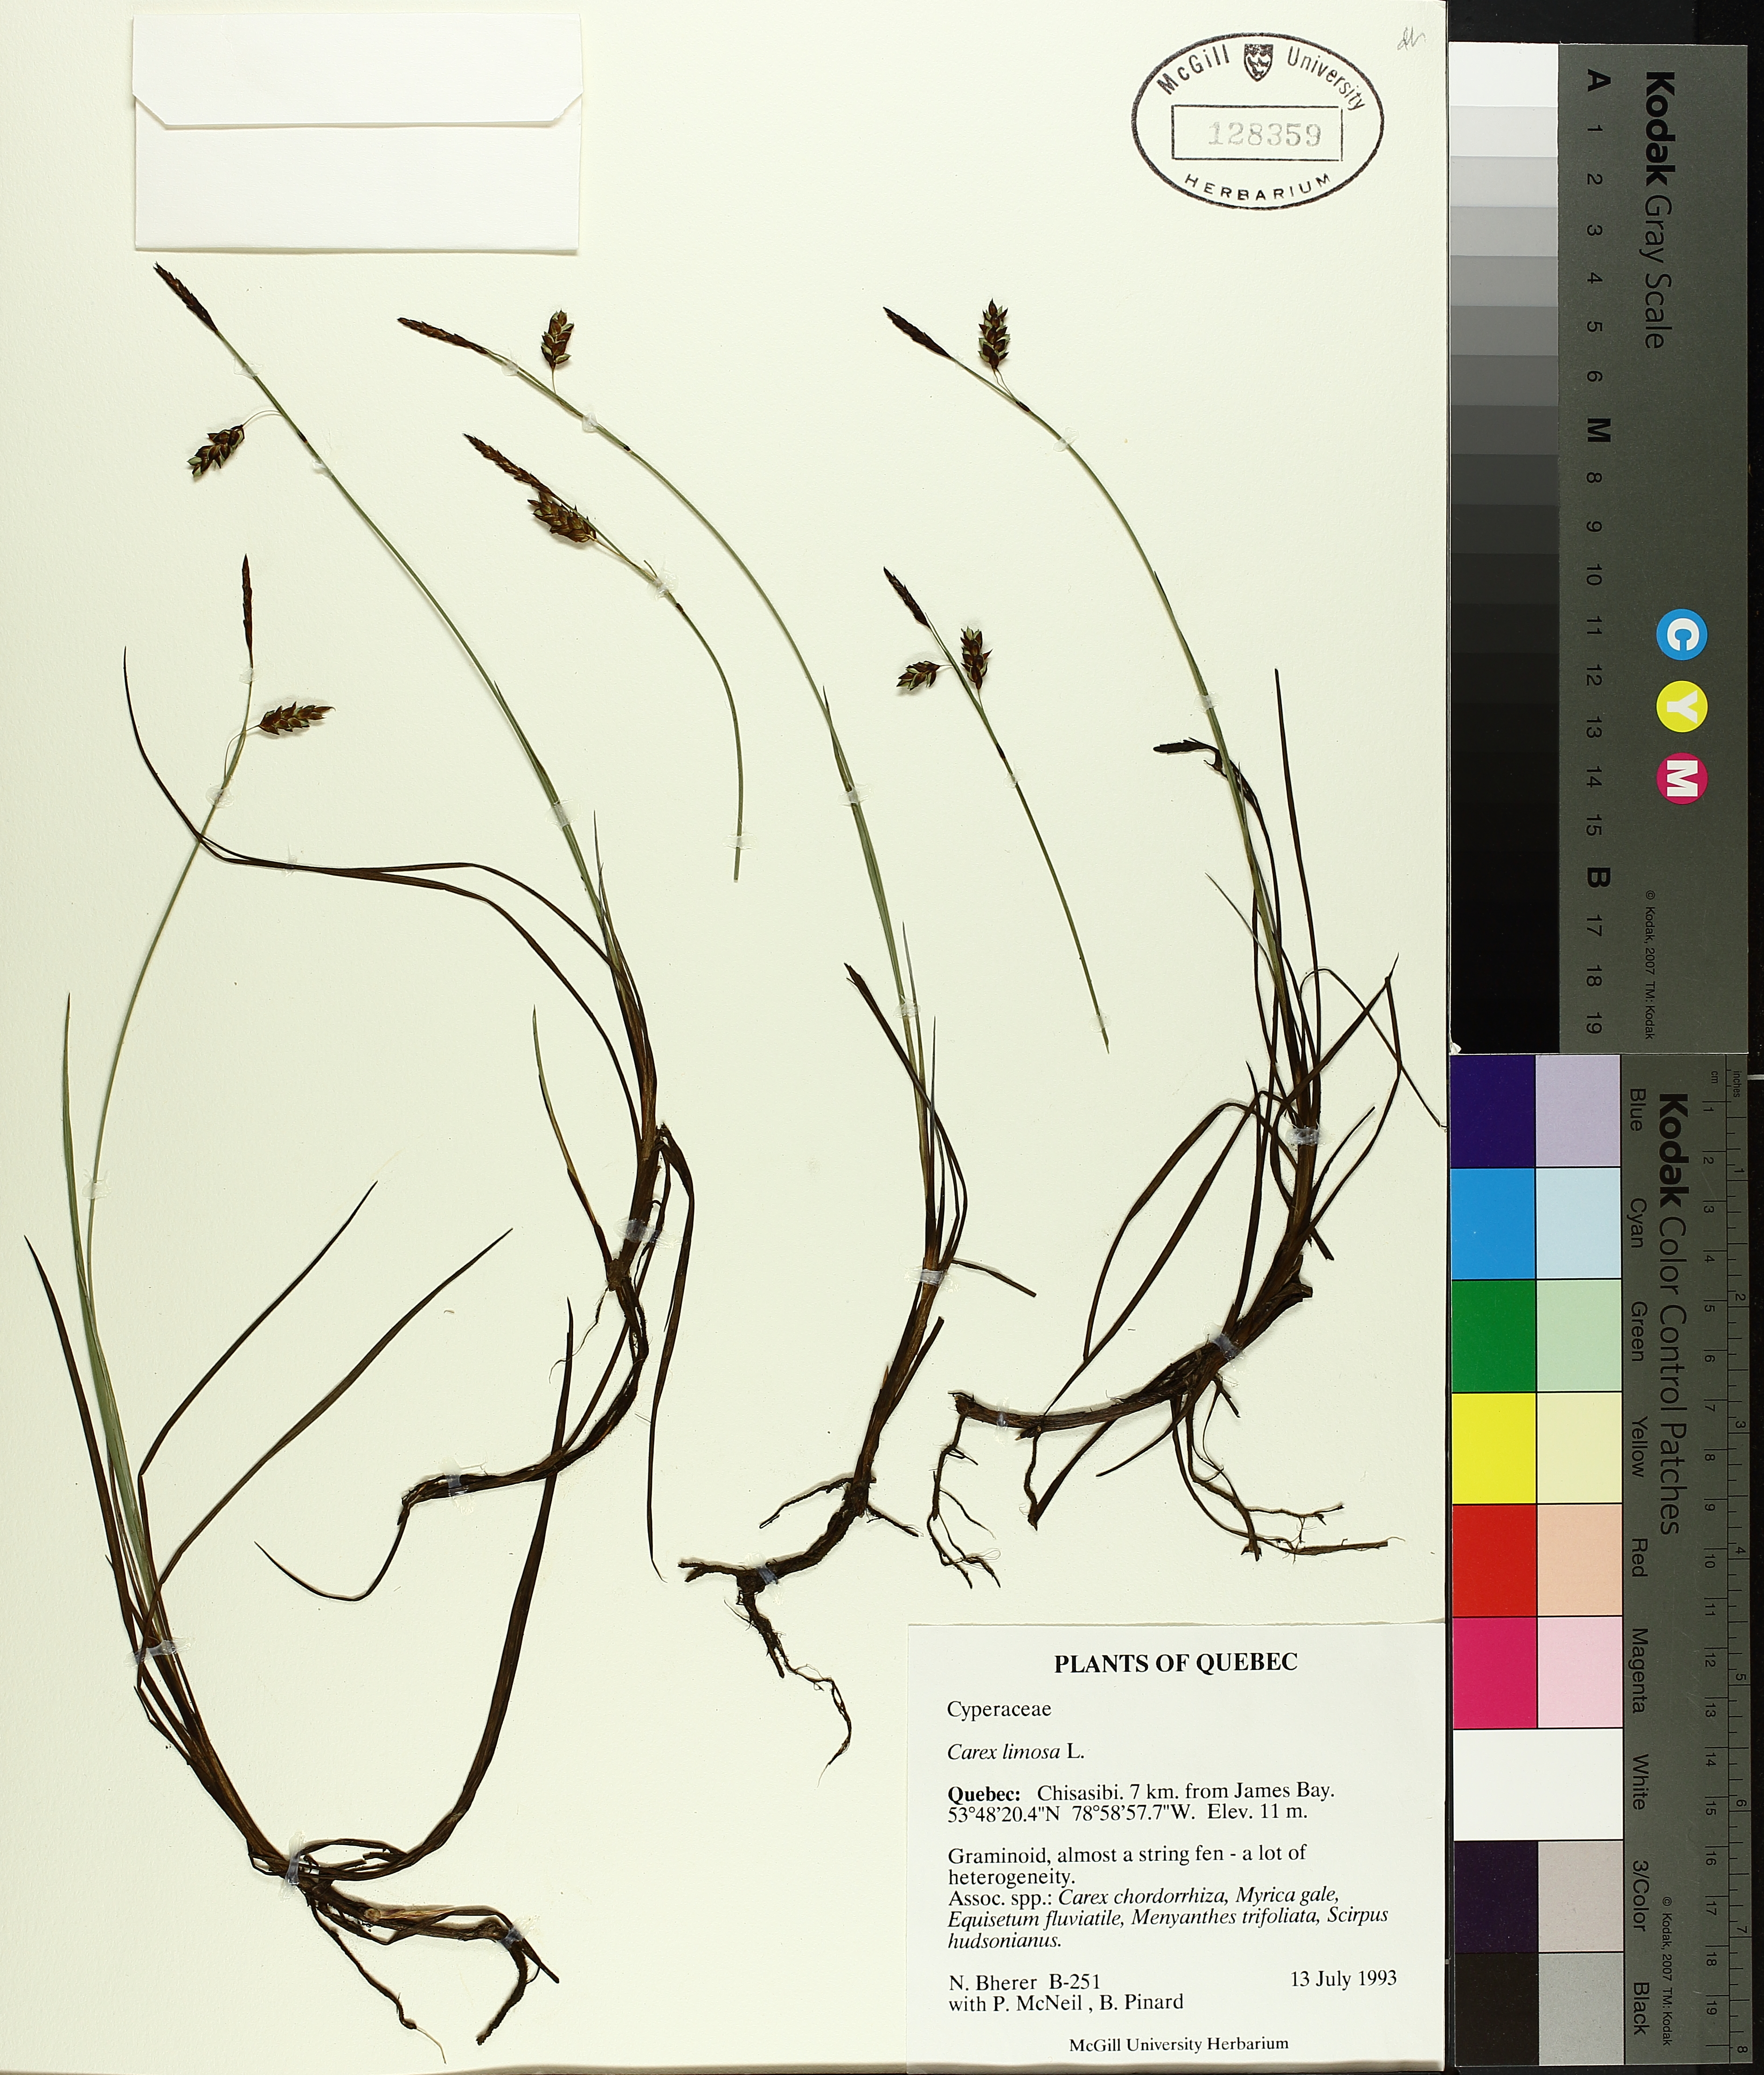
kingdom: Plantae
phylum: Tracheophyta
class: Liliopsida
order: Poales
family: Cyperaceae
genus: Carex
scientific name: Carex limosa
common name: Bog sedge
